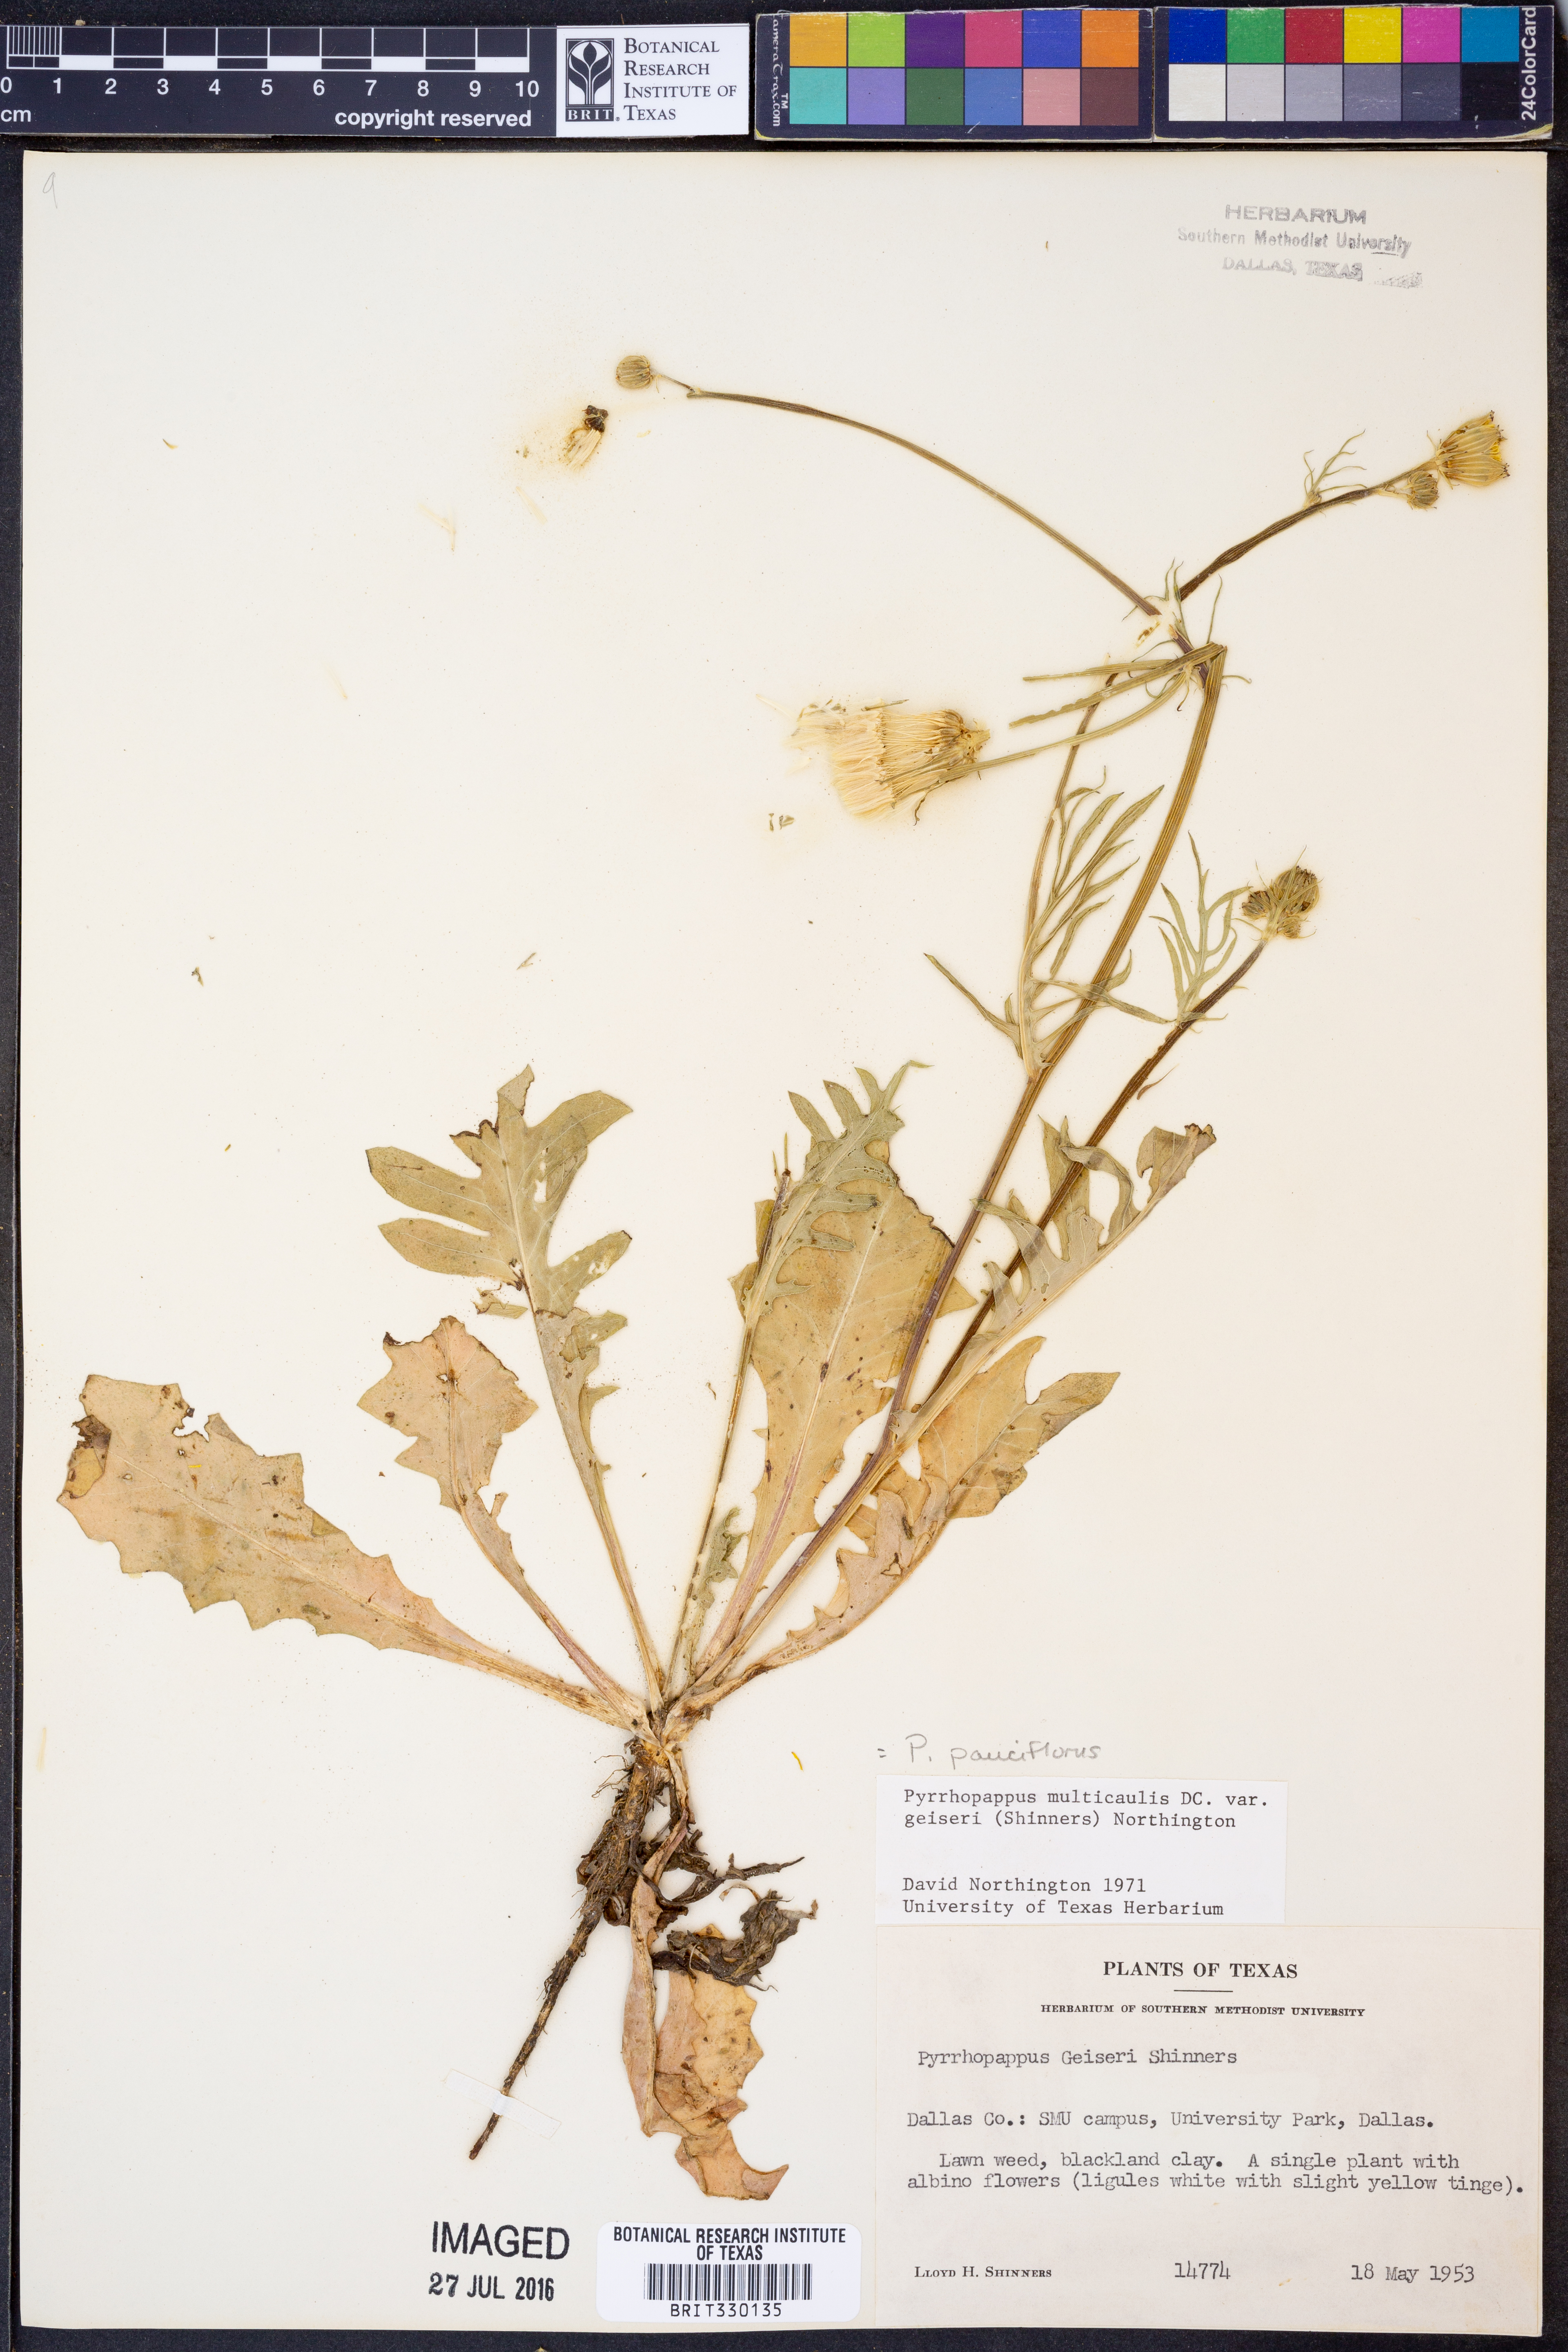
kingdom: Plantae
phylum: Tracheophyta
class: Magnoliopsida
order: Asterales
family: Asteraceae
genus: Pyrrhopappus
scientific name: Pyrrhopappus pauciflorus
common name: Texas false dandelion
